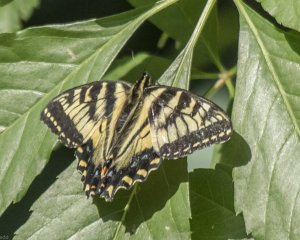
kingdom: Animalia
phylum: Arthropoda
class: Insecta
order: Lepidoptera
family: Papilionidae
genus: Pterourus
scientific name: Pterourus canadensis
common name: Canadian Tiger Swallowtail
